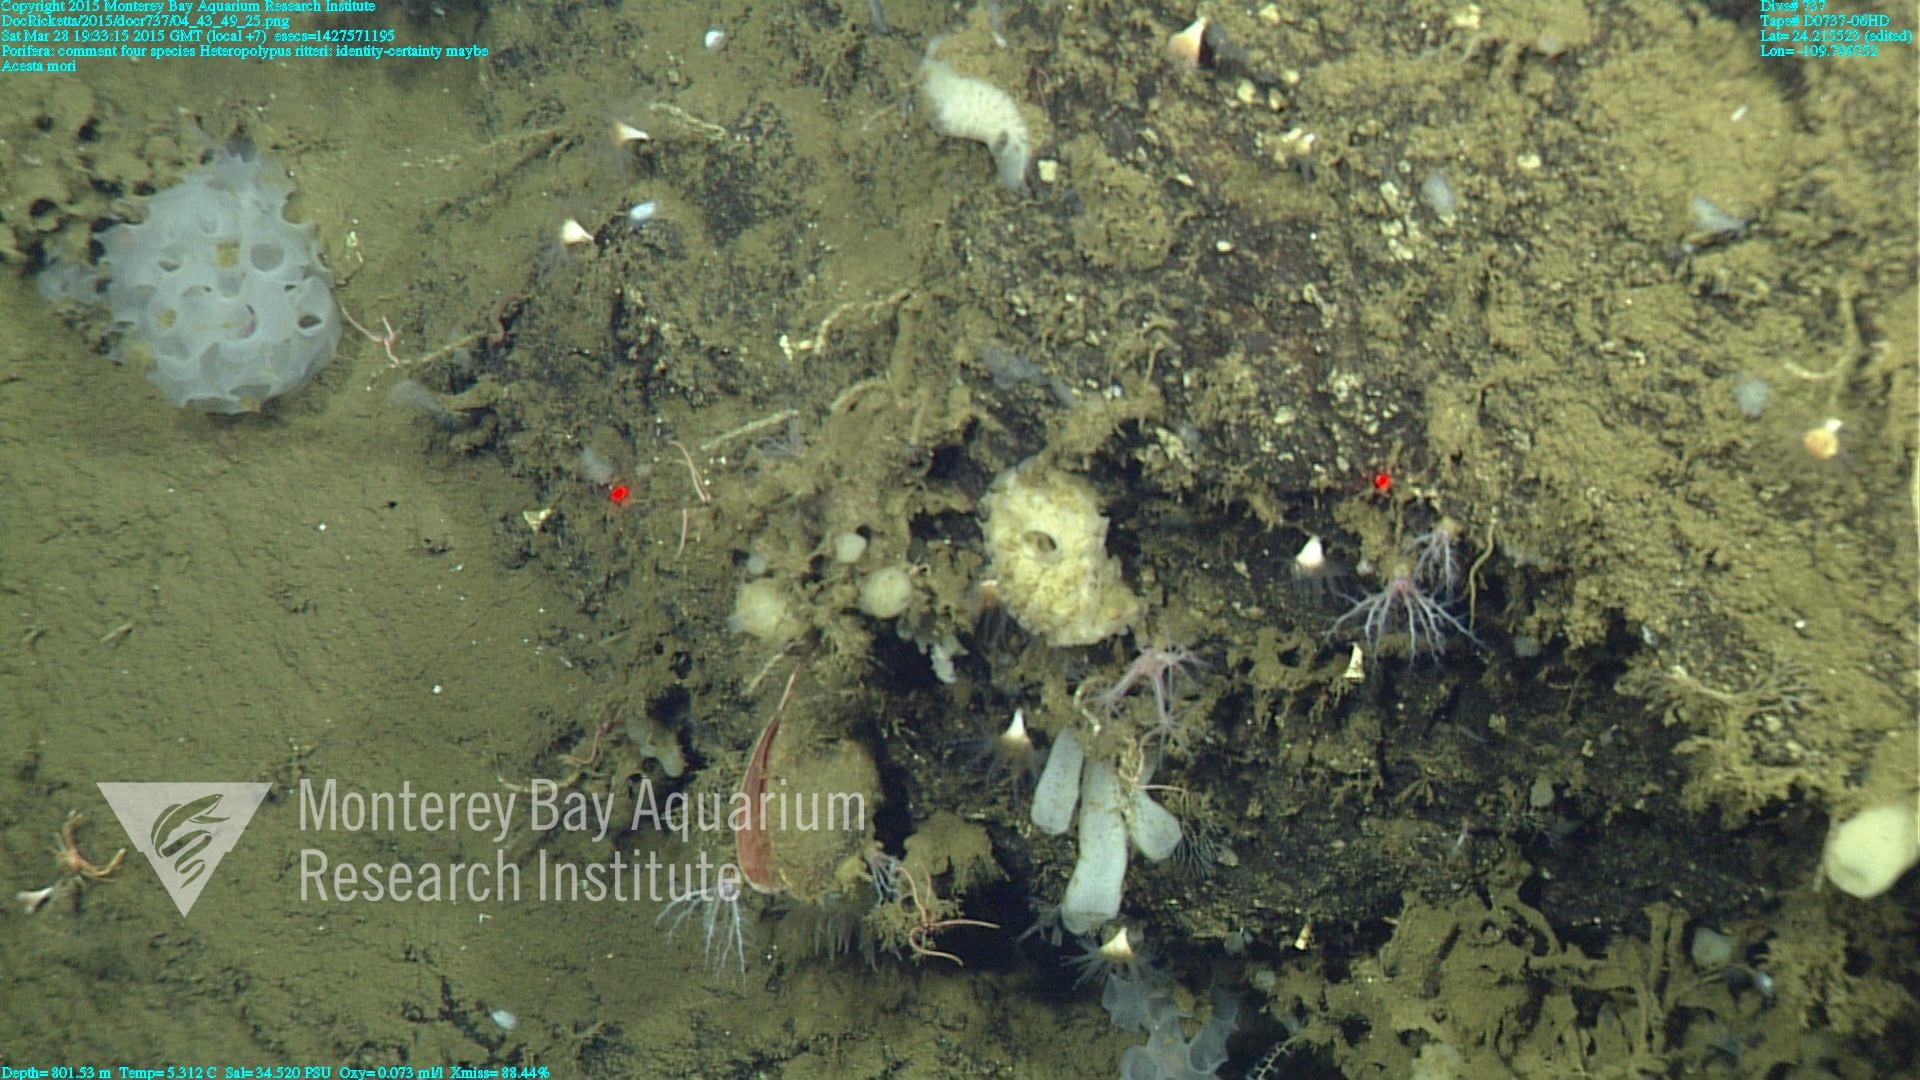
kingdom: Animalia
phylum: Cnidaria
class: Anthozoa
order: Scleralcyonacea
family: Coralliidae
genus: Heteropolypus
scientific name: Heteropolypus ritteri
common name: Ritter's soft coral
